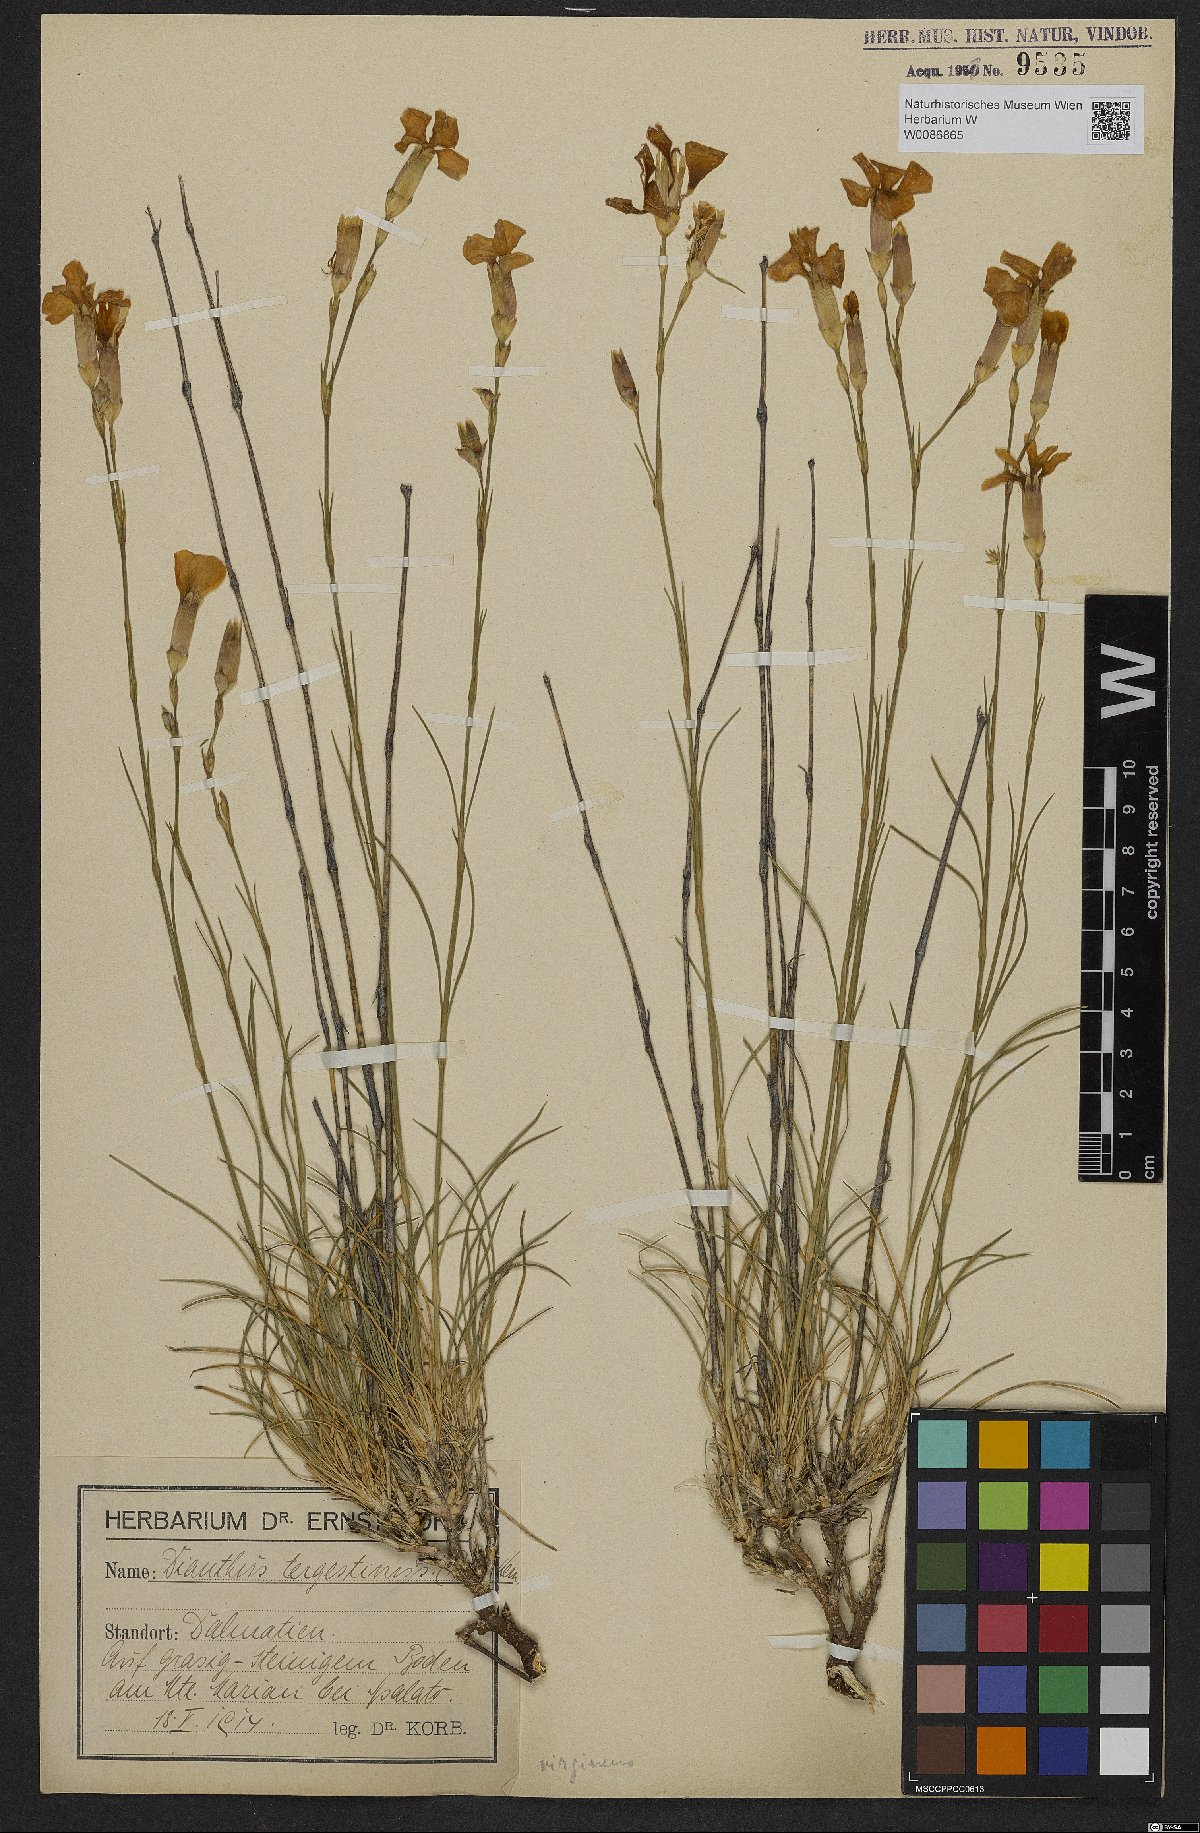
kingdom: Plantae
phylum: Tracheophyta
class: Magnoliopsida
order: Caryophyllales
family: Caryophyllaceae
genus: Dianthus
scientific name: Dianthus sylvestris
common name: Wood pink
